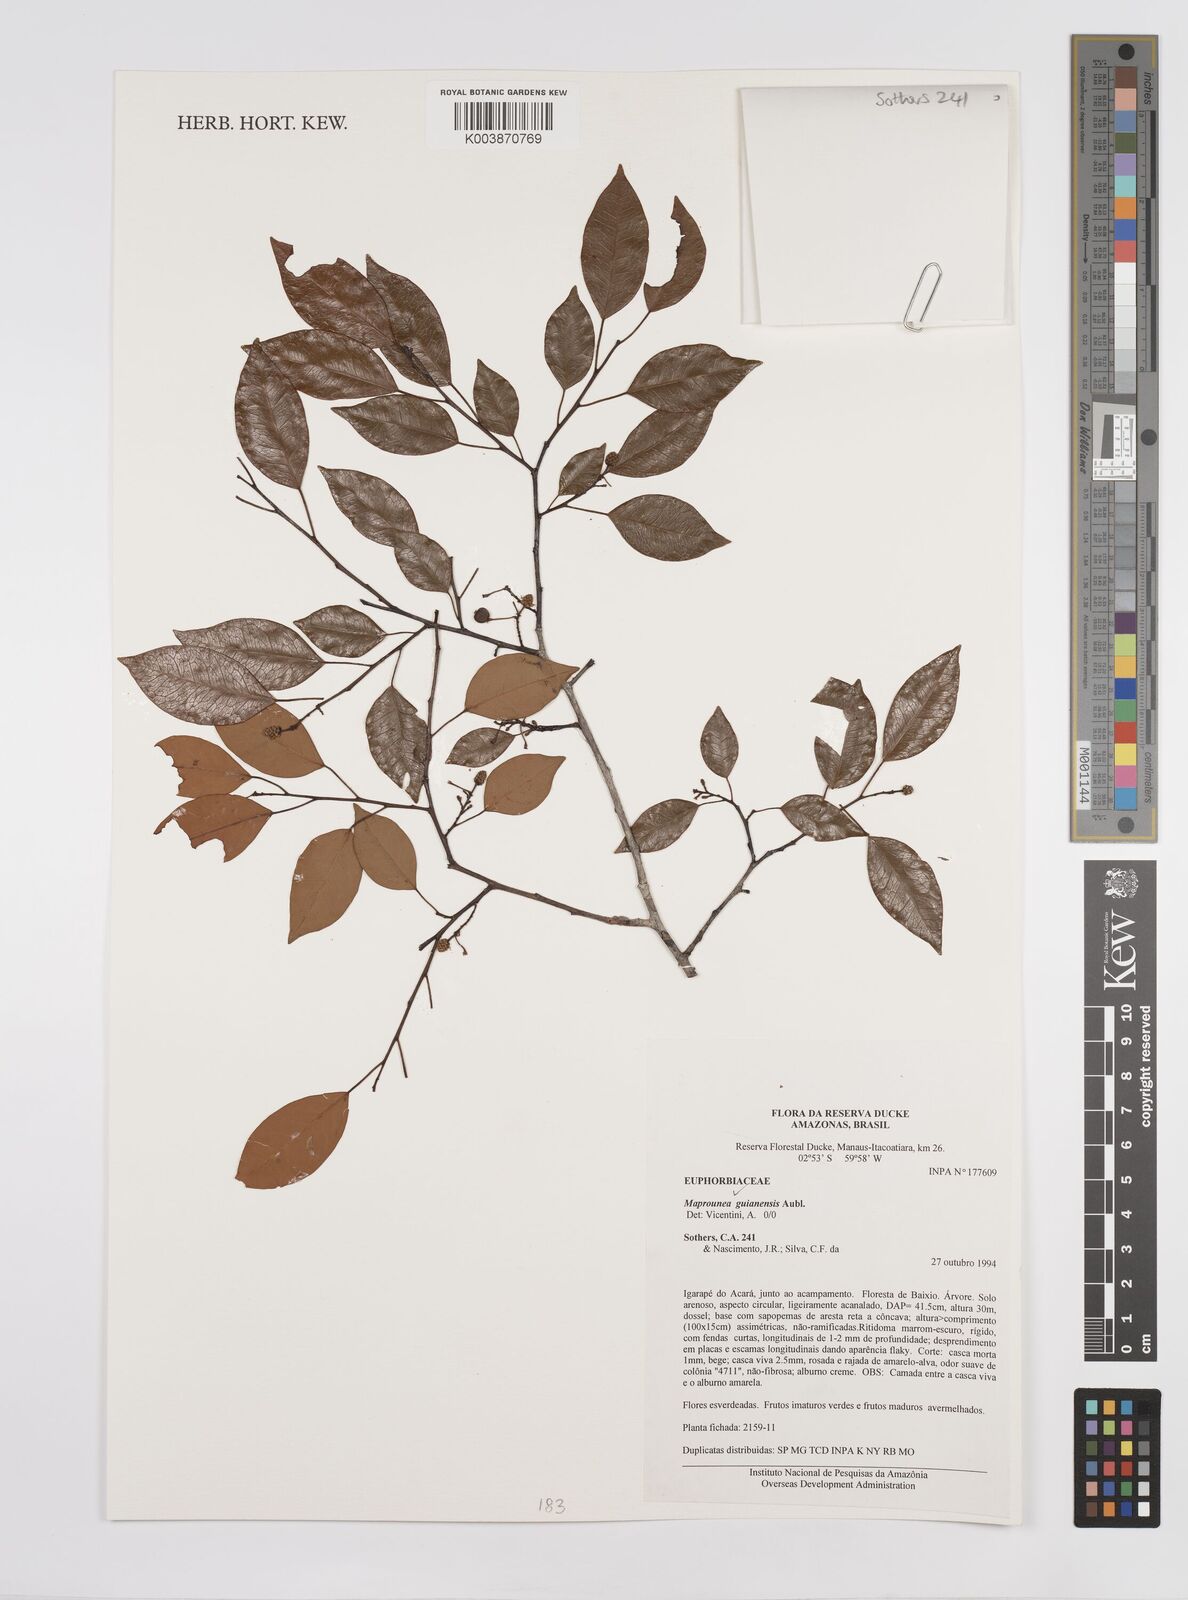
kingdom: Plantae
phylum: Tracheophyta
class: Magnoliopsida
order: Malpighiales
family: Euphorbiaceae
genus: Maprounea
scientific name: Maprounea guianensis
